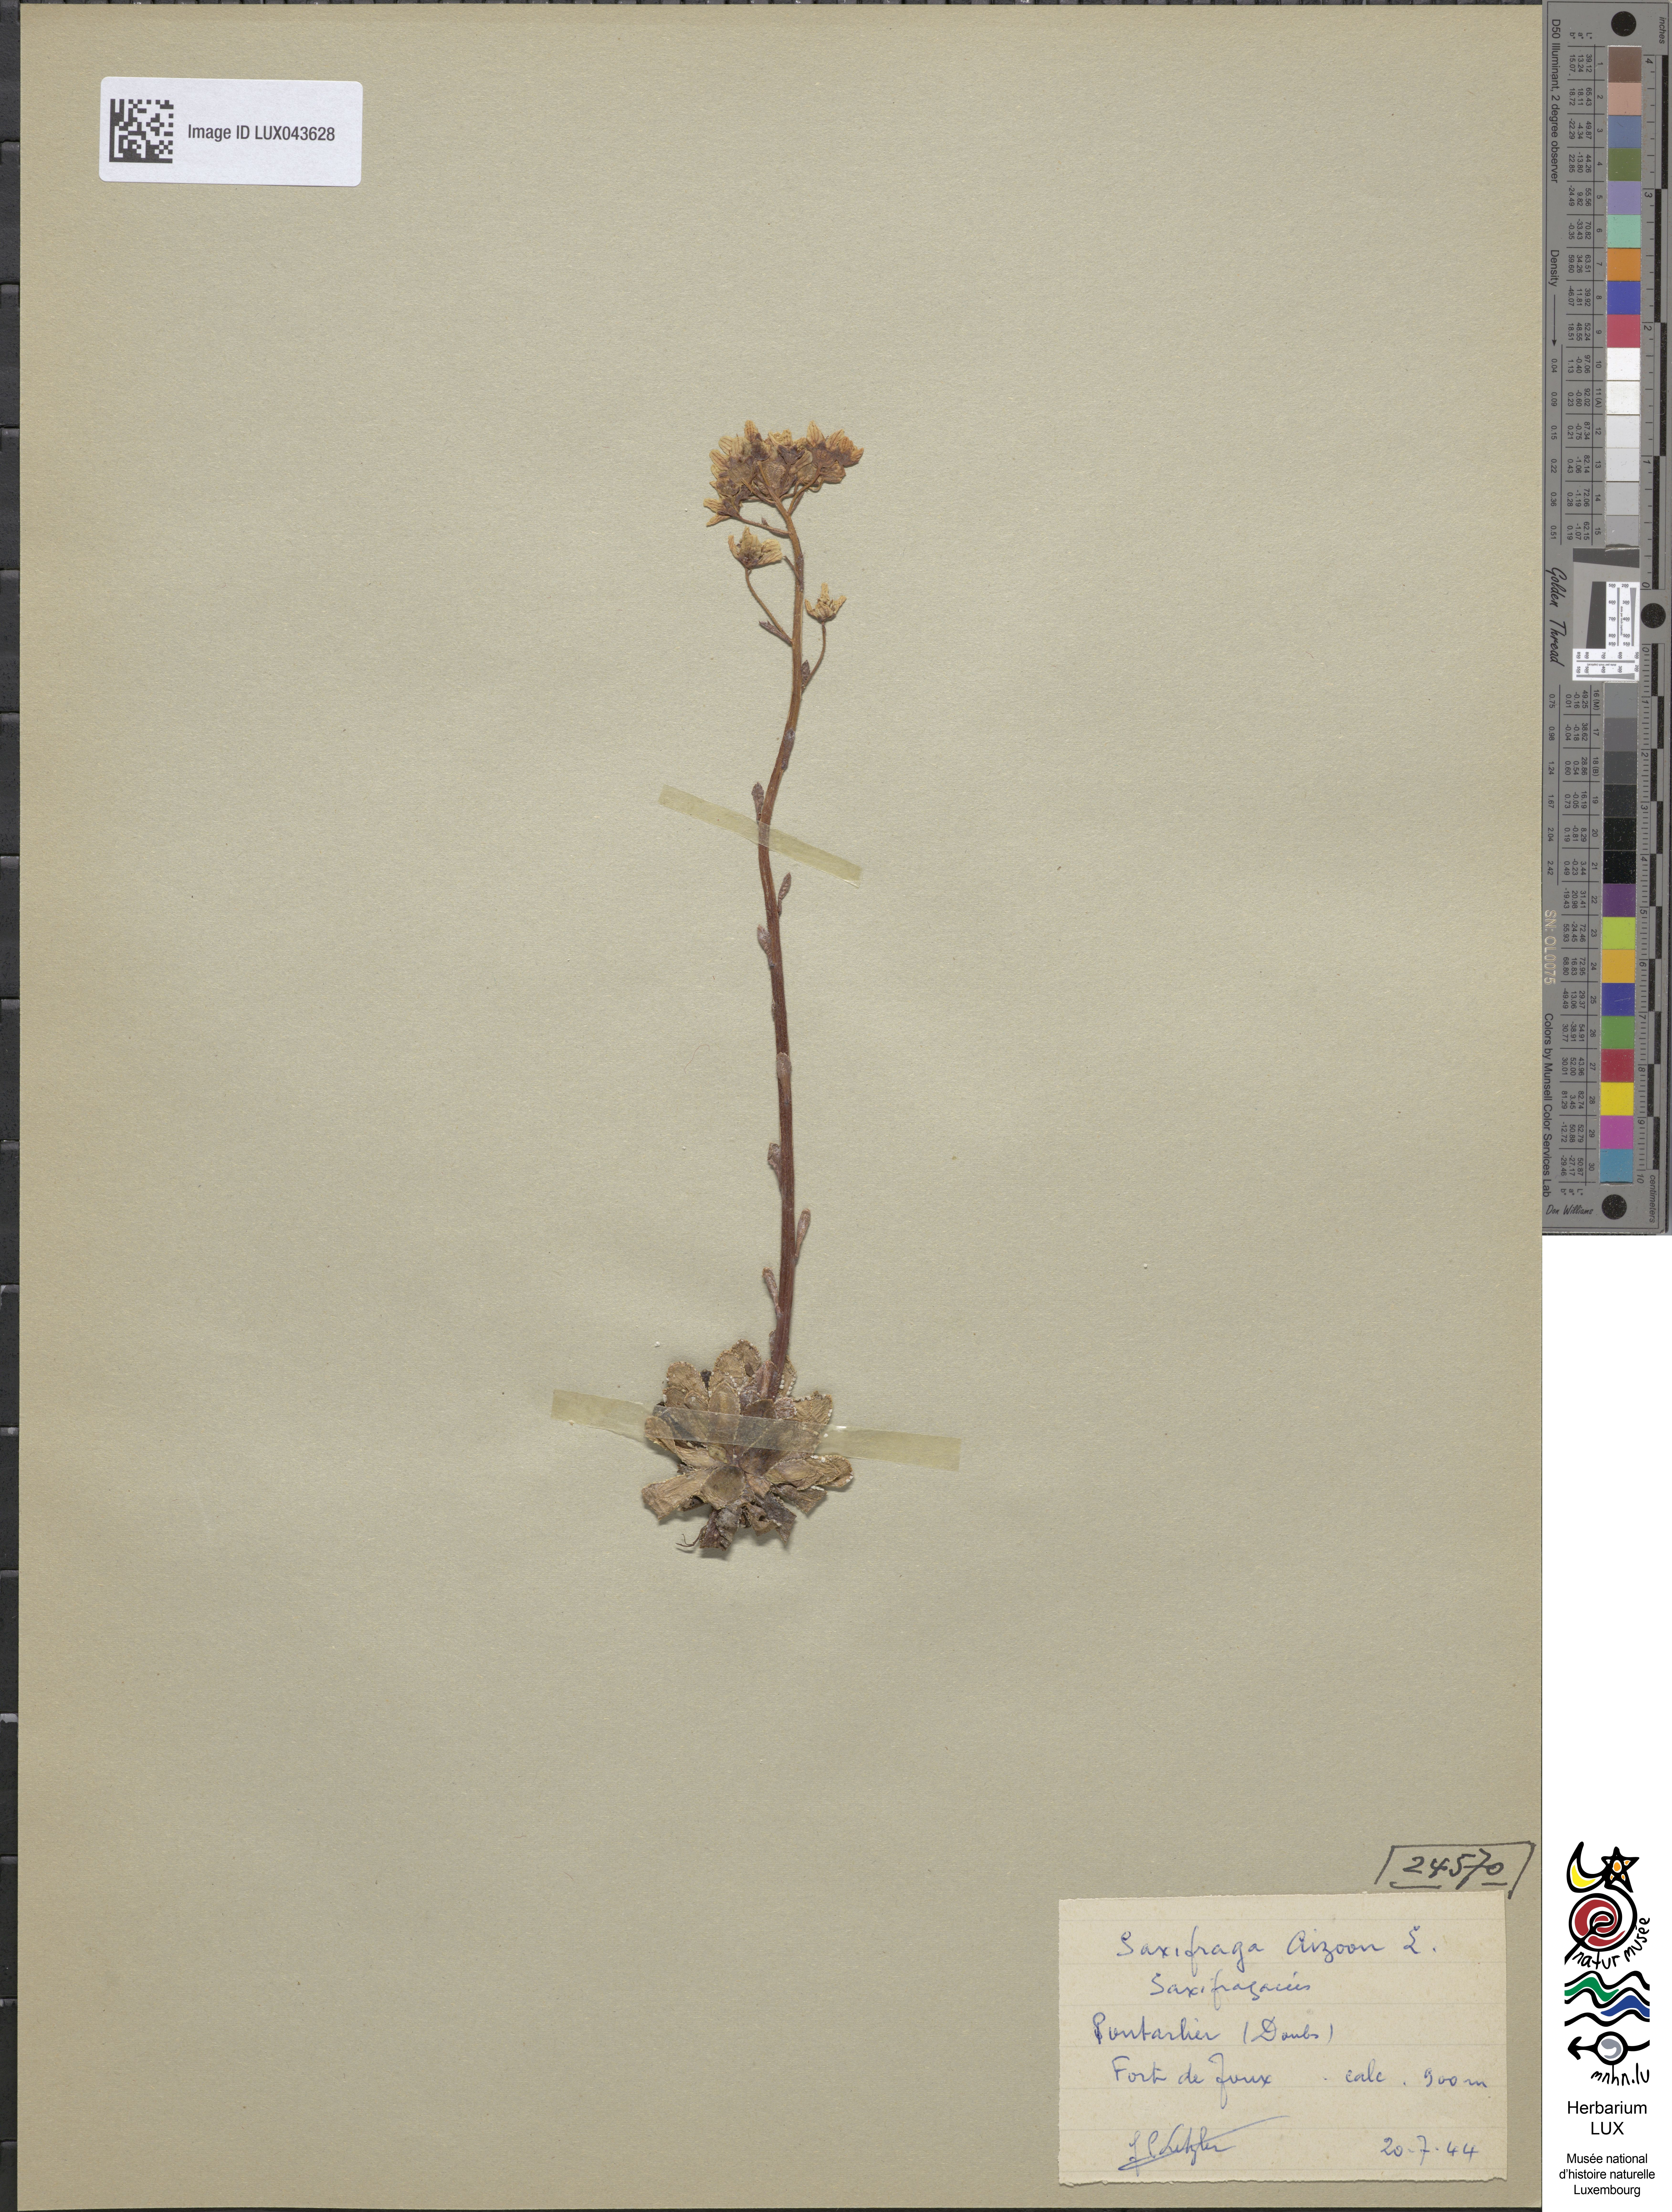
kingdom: Plantae
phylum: Tracheophyta
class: Magnoliopsida
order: Saxifragales
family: Saxifragaceae
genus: Saxifraga
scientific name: Saxifraga paniculata
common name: Livelong saxifrage
